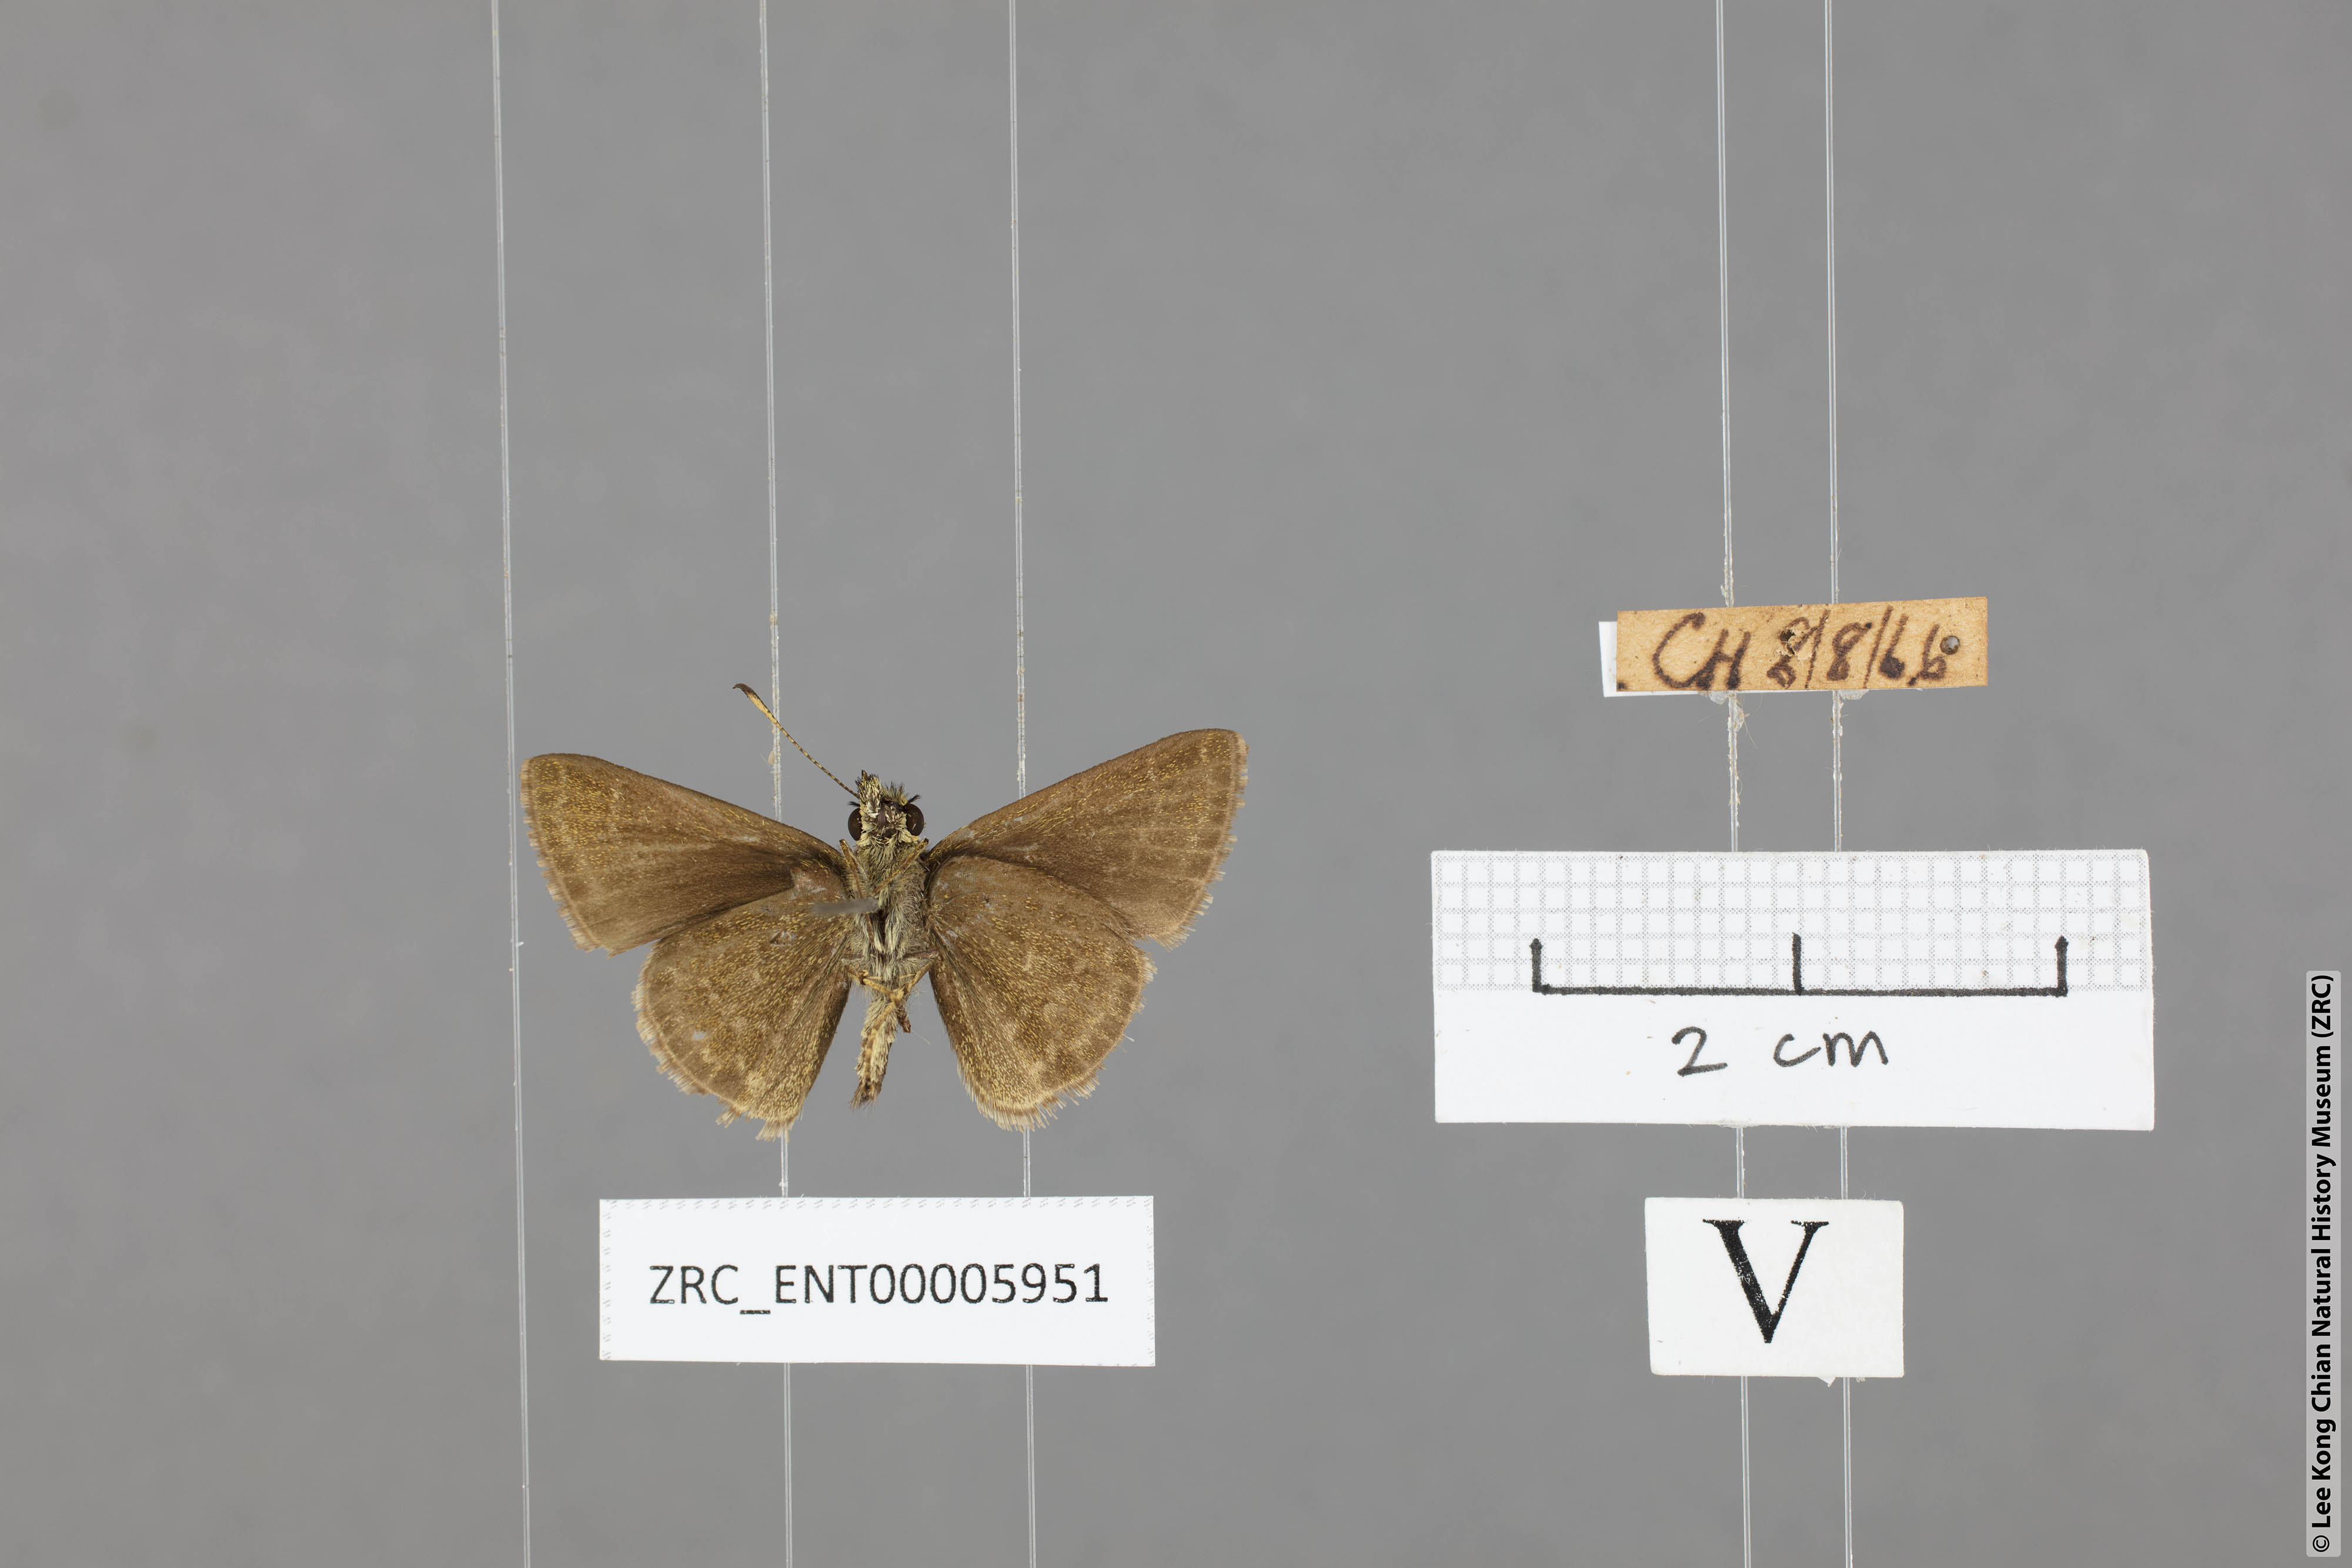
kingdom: Animalia
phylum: Arthropoda
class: Insecta
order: Lepidoptera
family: Hesperiidae
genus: Aeromachus
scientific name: Aeromachus jhora
